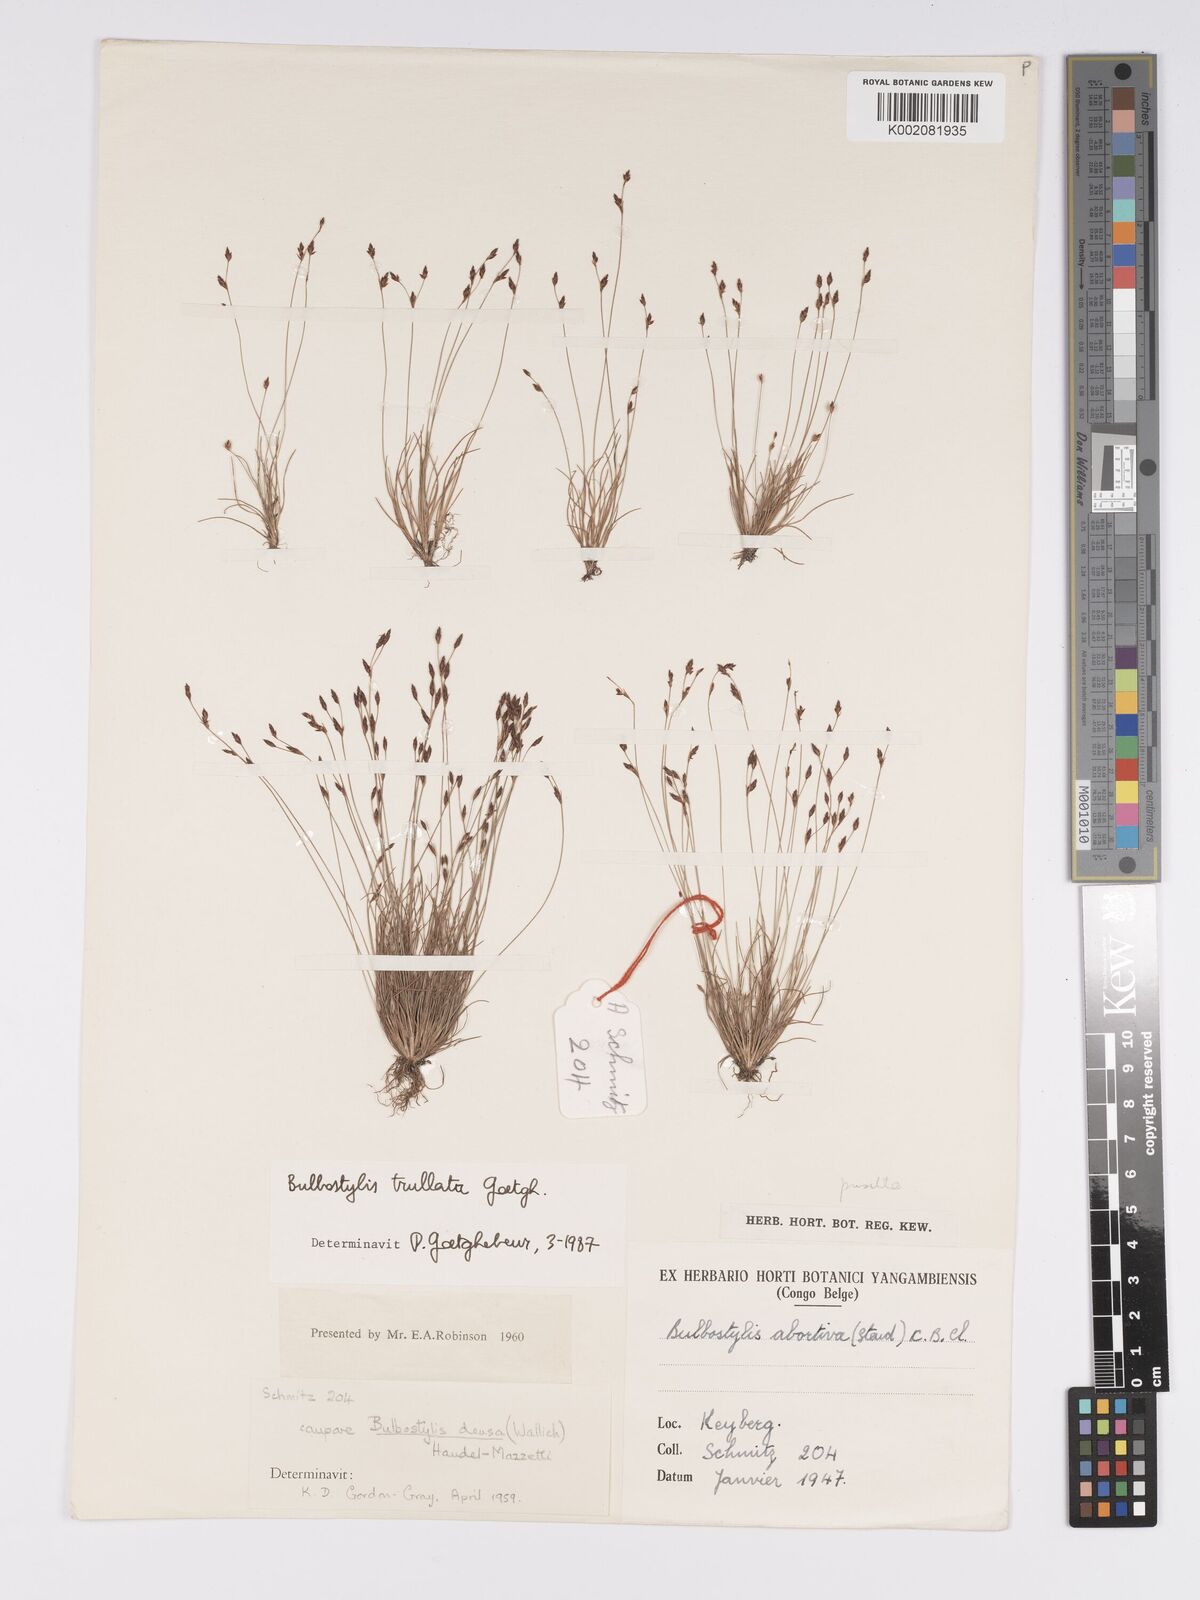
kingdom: Plantae
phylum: Tracheophyta
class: Liliopsida
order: Poales
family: Cyperaceae
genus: Bulbostylis
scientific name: Bulbostylis trullata
